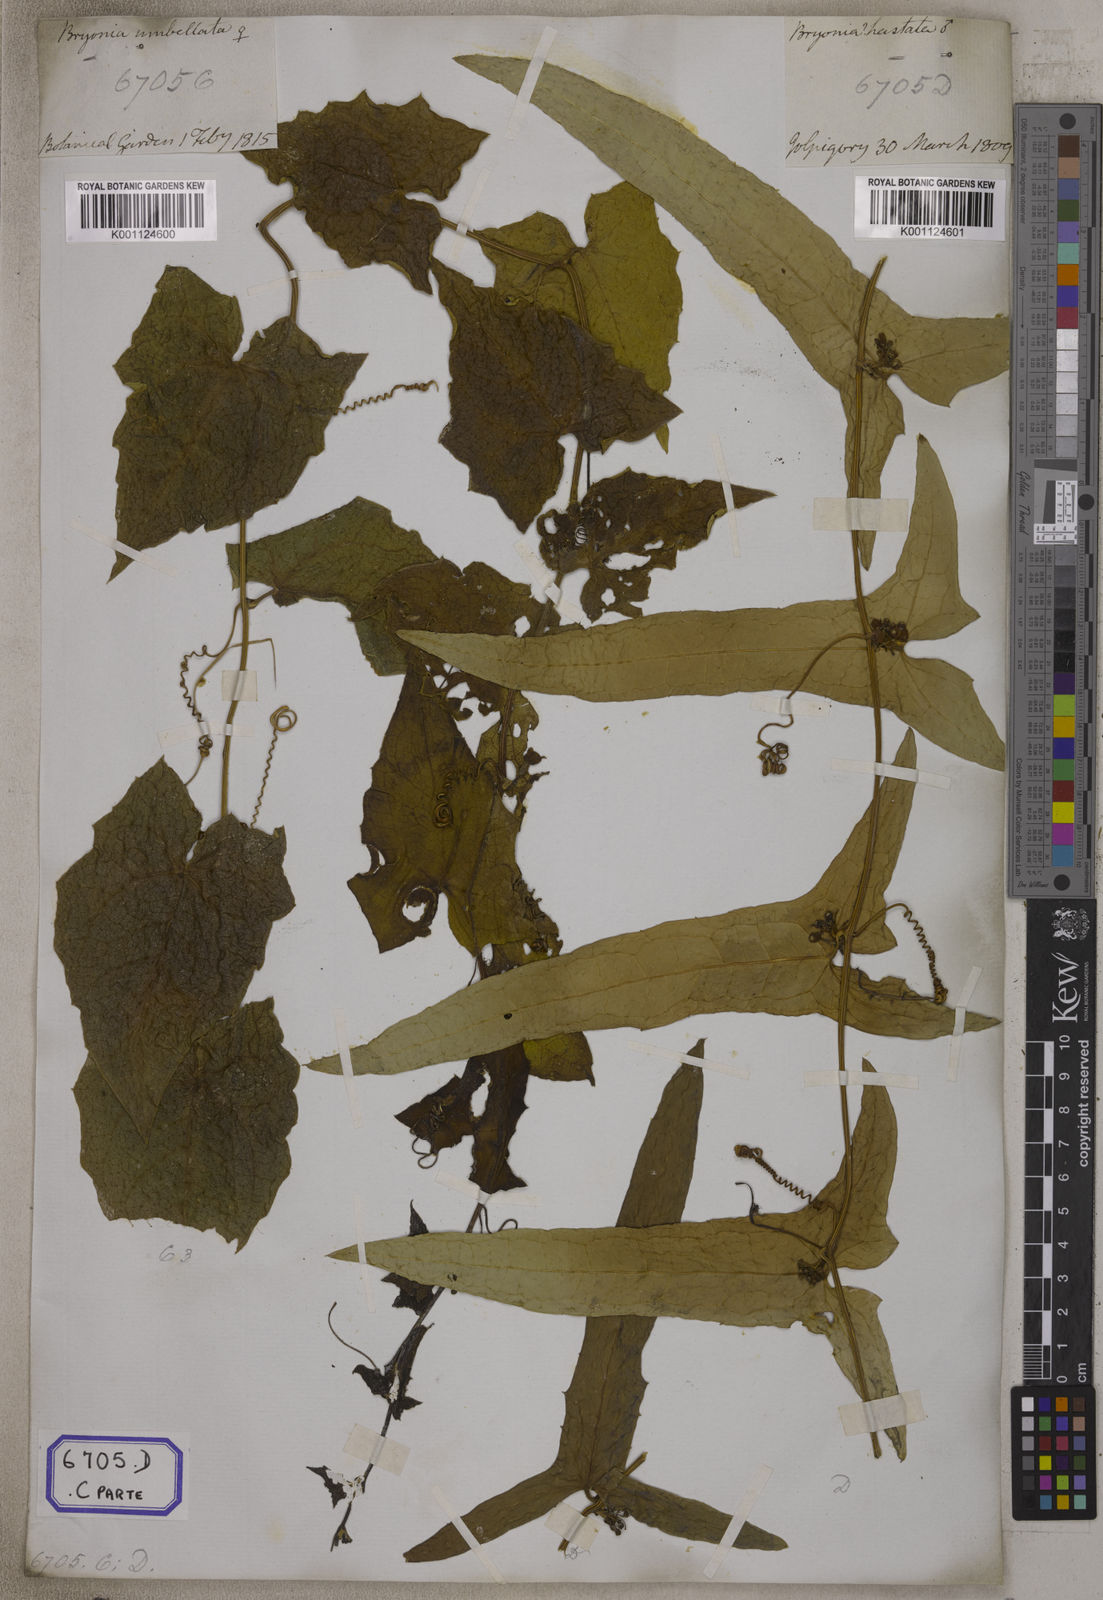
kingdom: Plantae
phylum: Tracheophyta
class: Magnoliopsida
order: Cucurbitales
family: Cucurbitaceae
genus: Bryonia
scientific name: Bryonia
